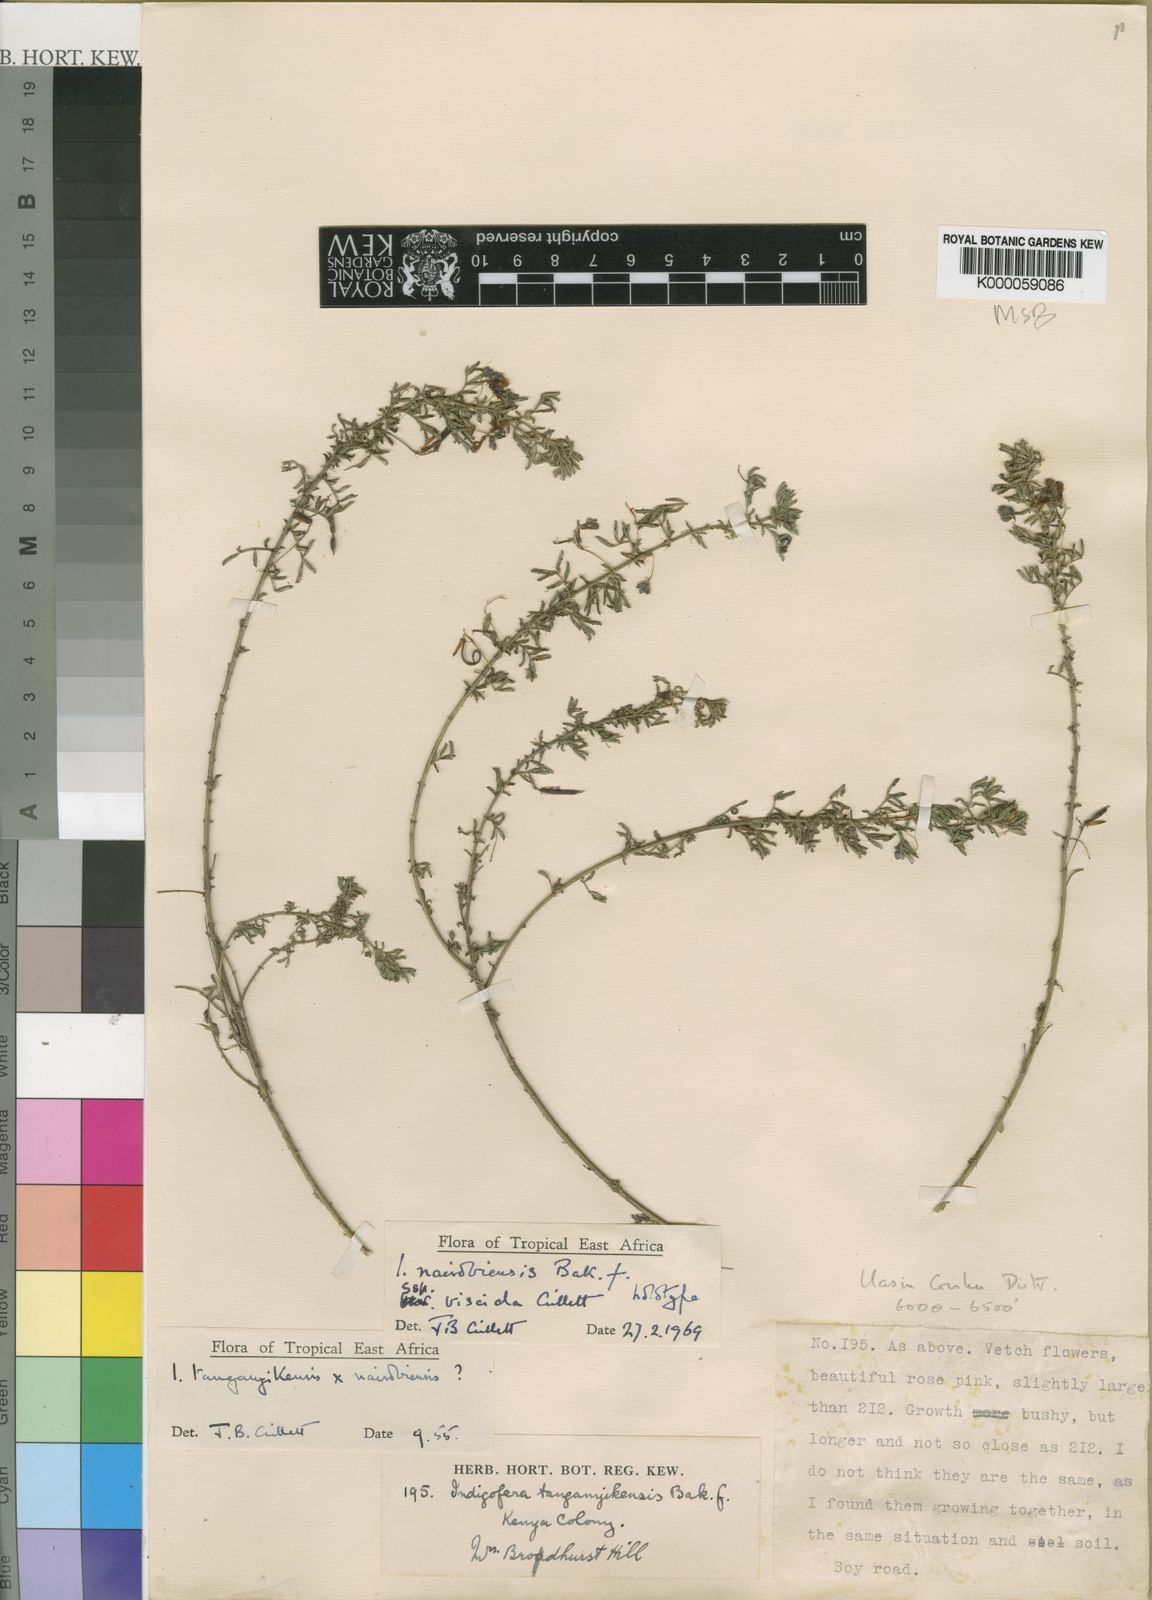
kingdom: Plantae
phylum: Tracheophyta
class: Magnoliopsida
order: Fabales
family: Fabaceae
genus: Indigofera
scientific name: Indigofera nairobiensis
